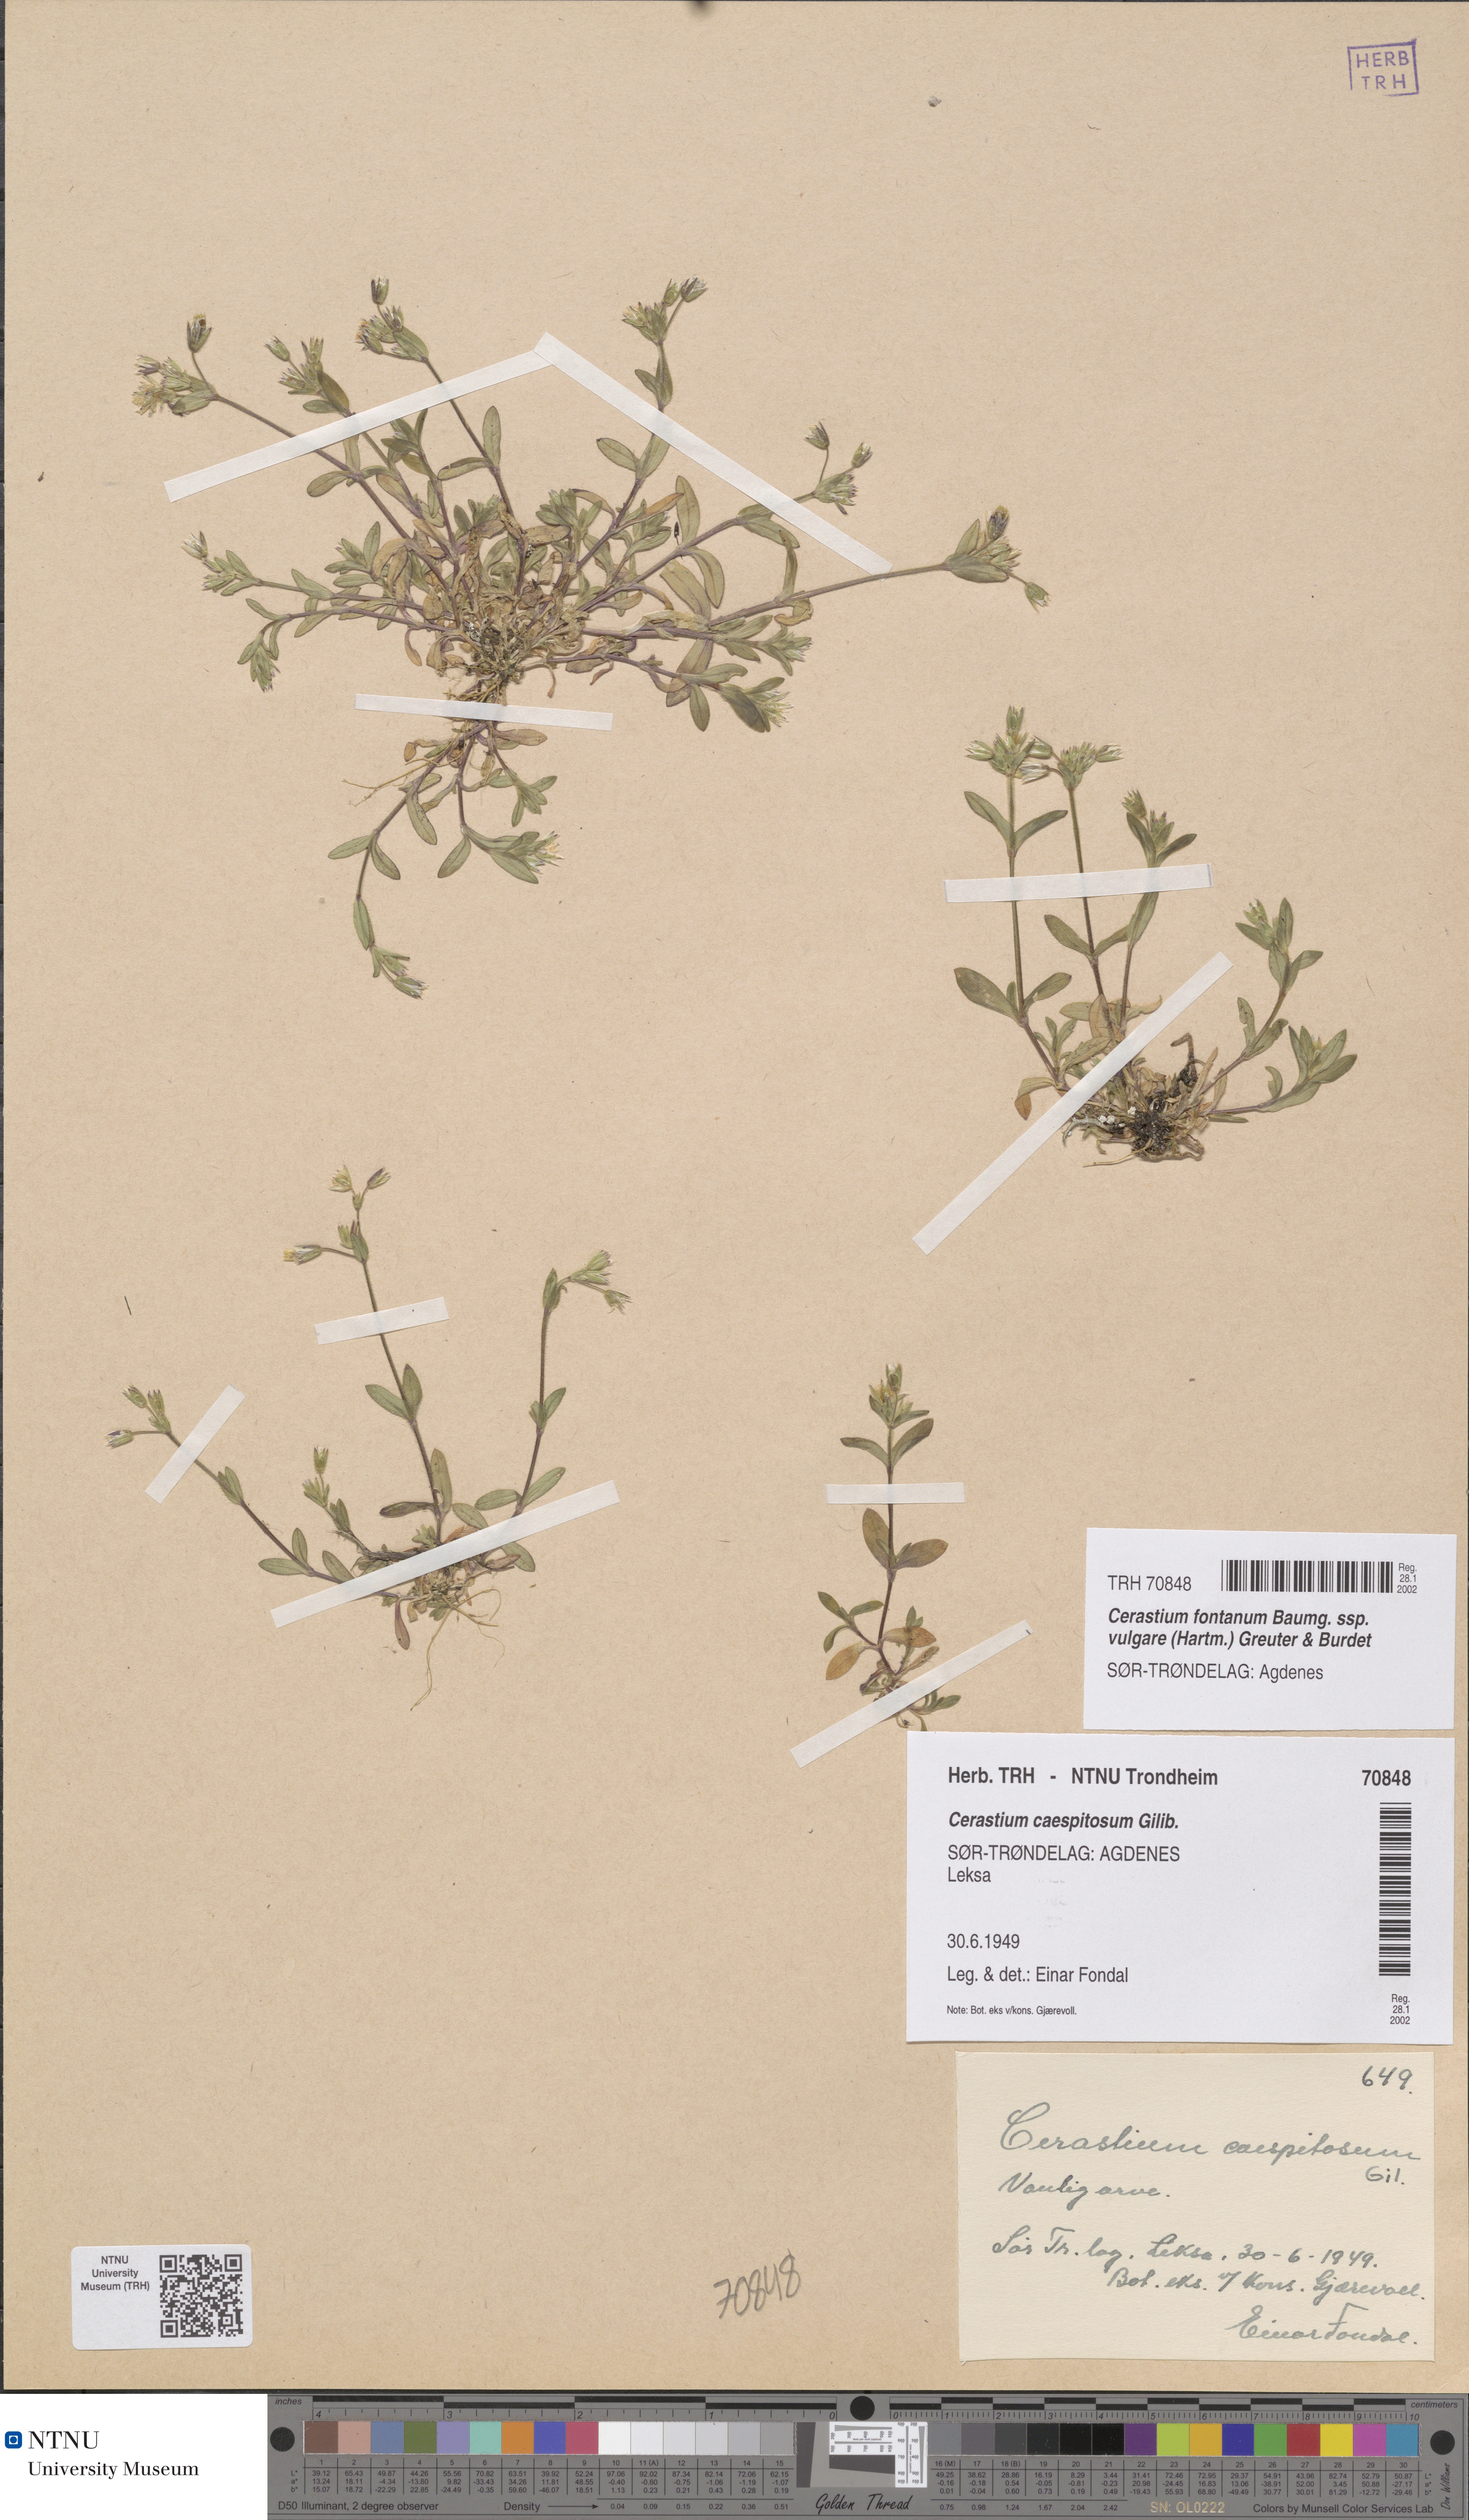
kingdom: Plantae
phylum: Tracheophyta
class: Magnoliopsida
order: Caryophyllales
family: Caryophyllaceae
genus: Cerastium
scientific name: Cerastium holosteoides
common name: Big chickweed
